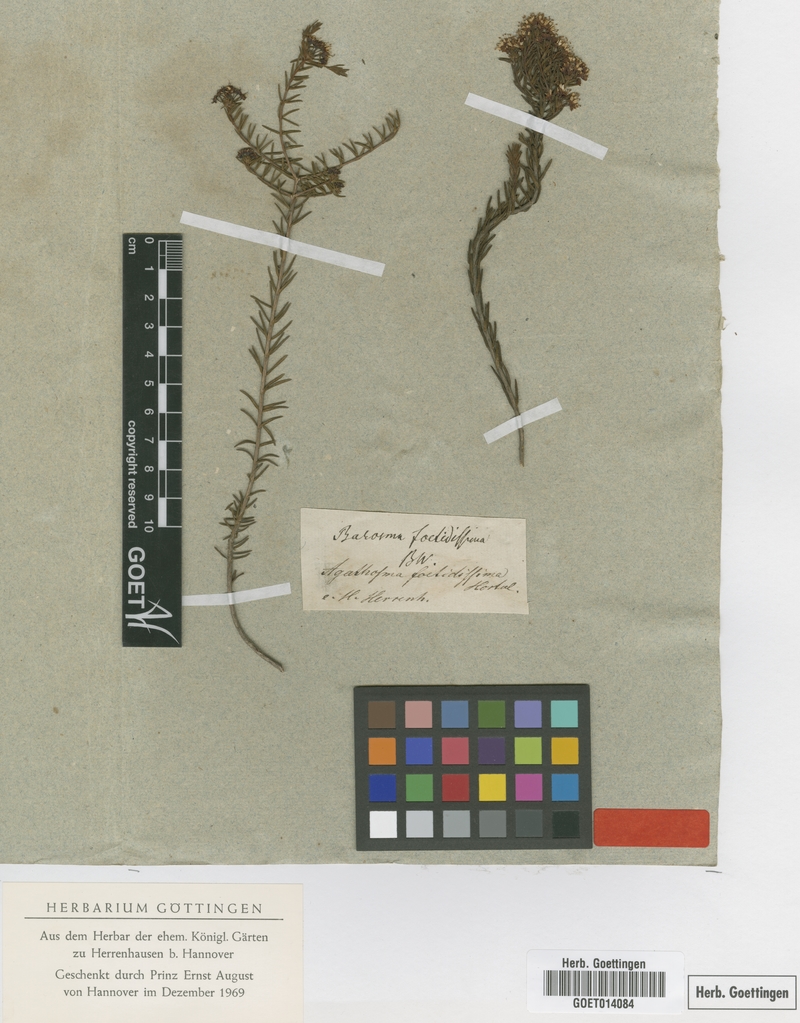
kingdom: Plantae
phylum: Tracheophyta
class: Magnoliopsida
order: Sapindales
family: Rutaceae
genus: Agathosma
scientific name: Agathosma foetidissima
